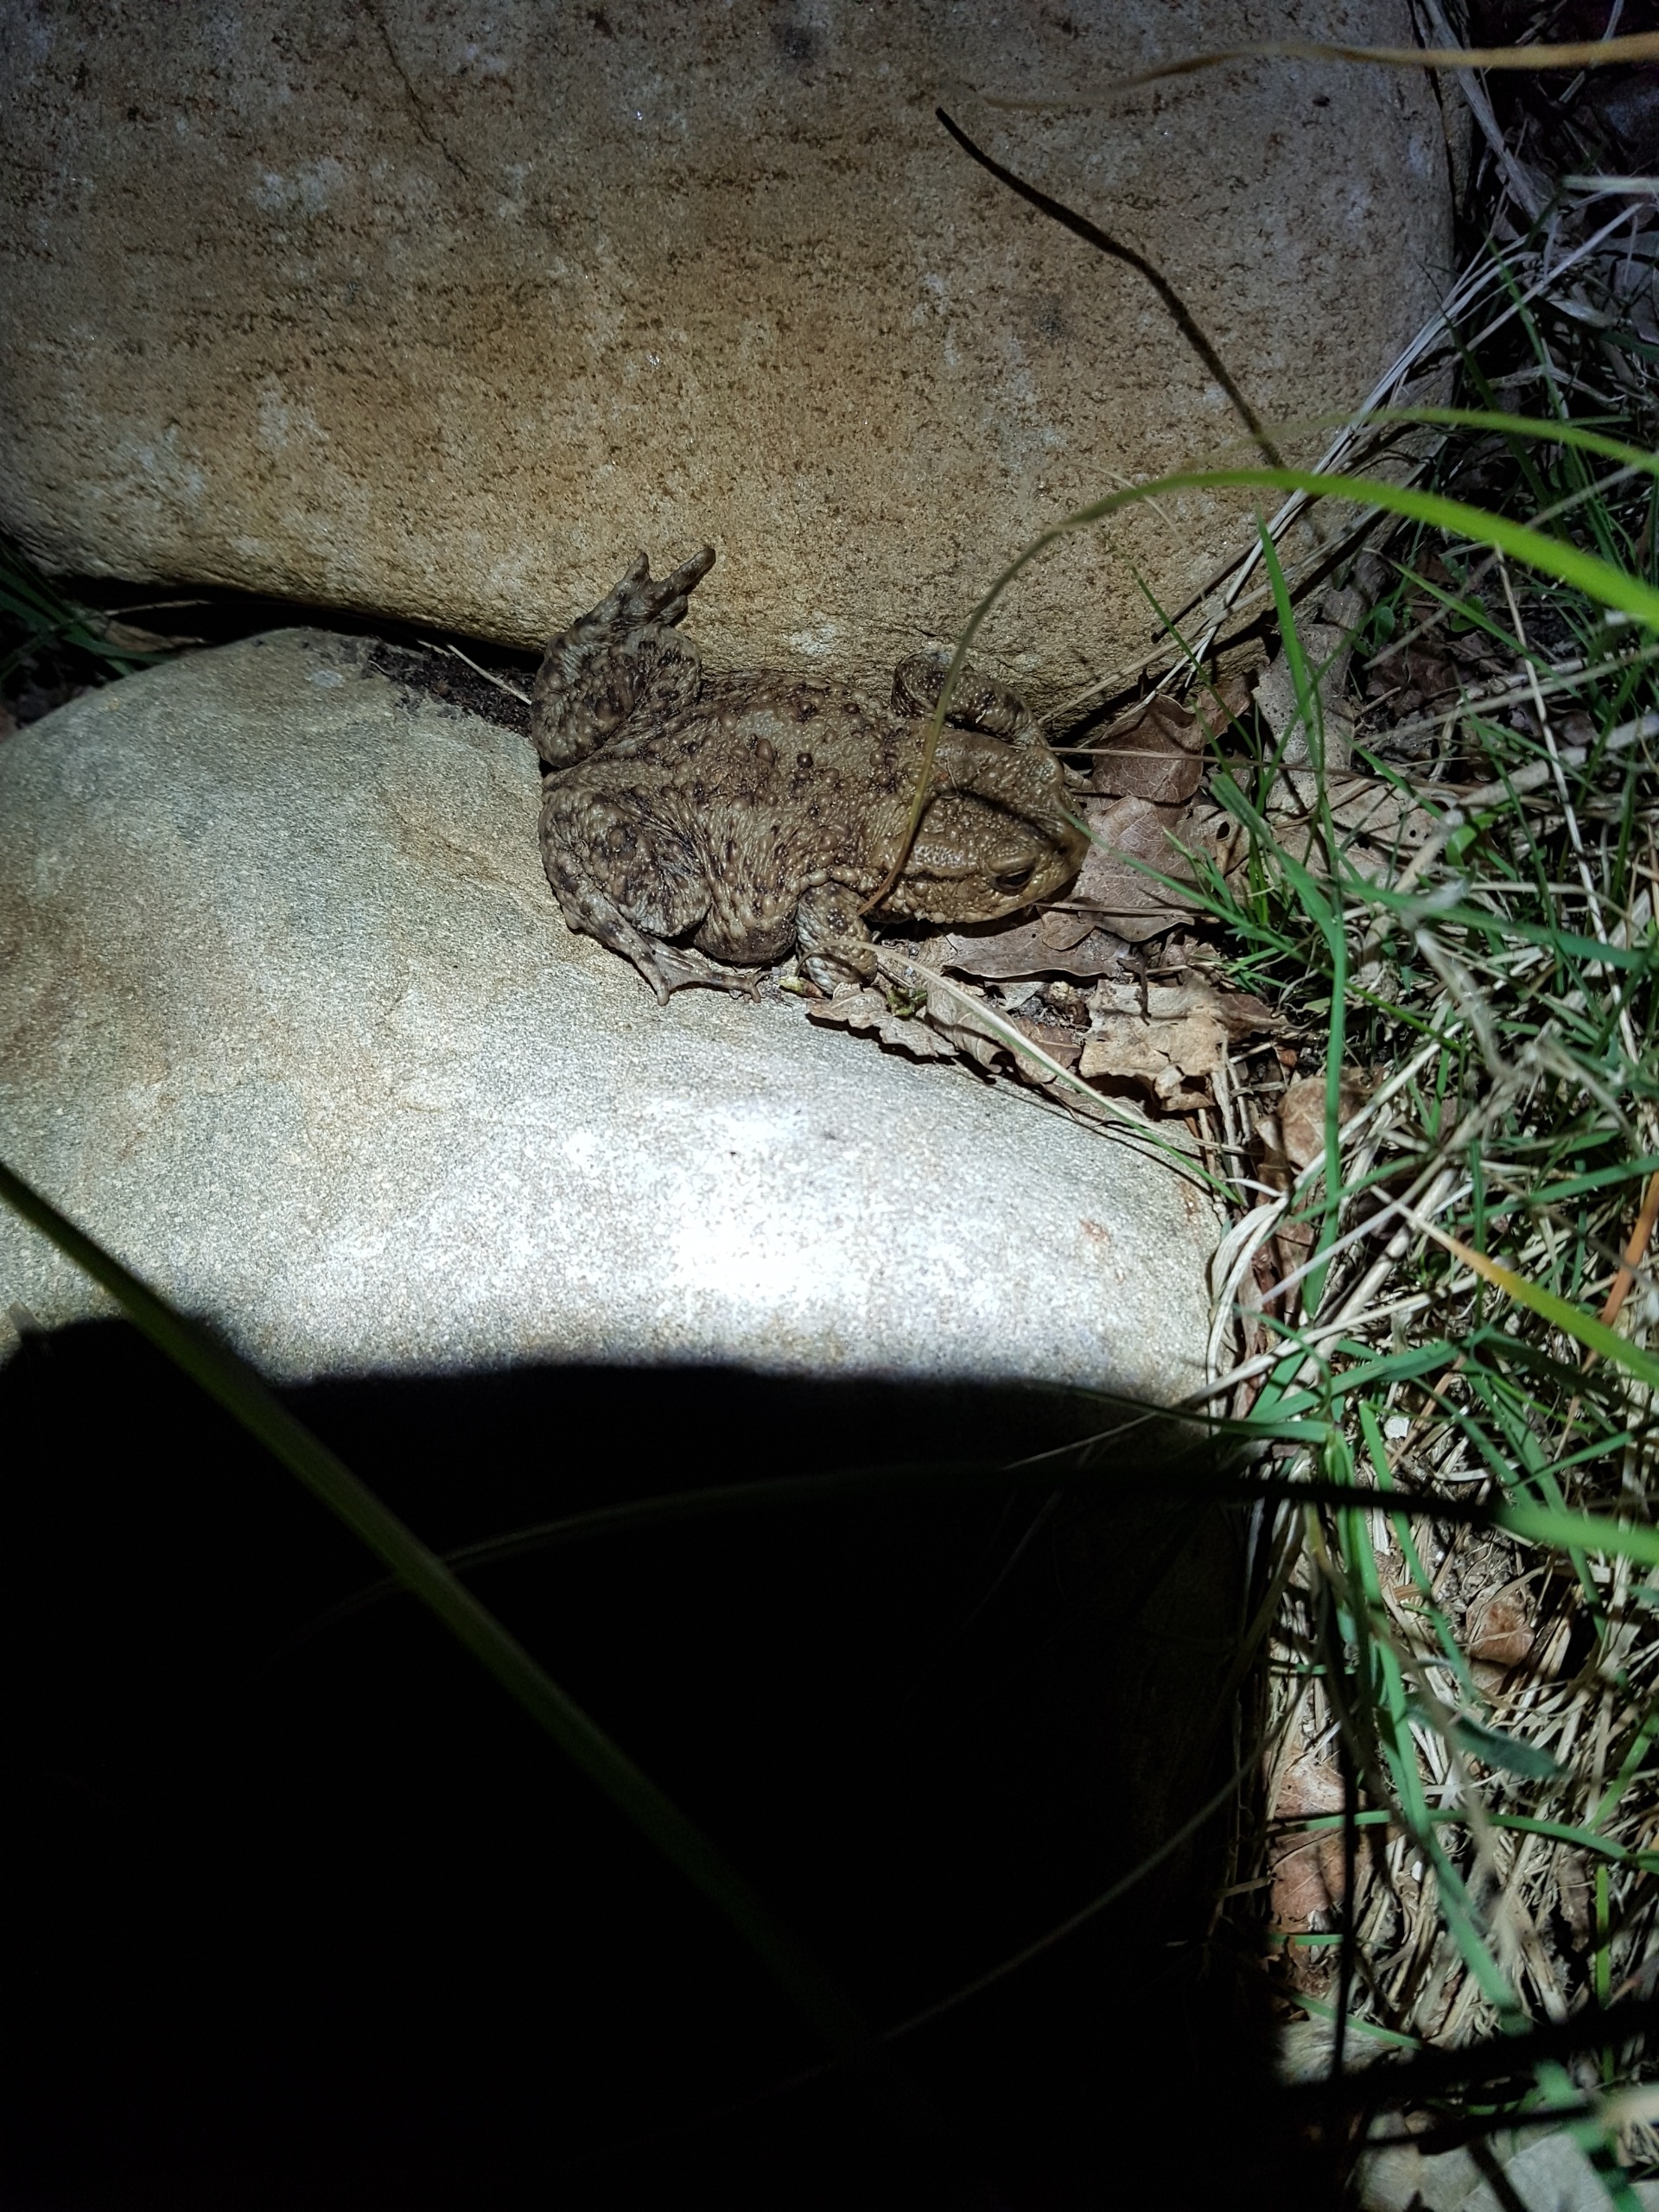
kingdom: Animalia
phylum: Chordata
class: Amphibia
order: Anura
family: Bufonidae
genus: Bufo
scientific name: Bufo bufo
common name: Skrubtudse
